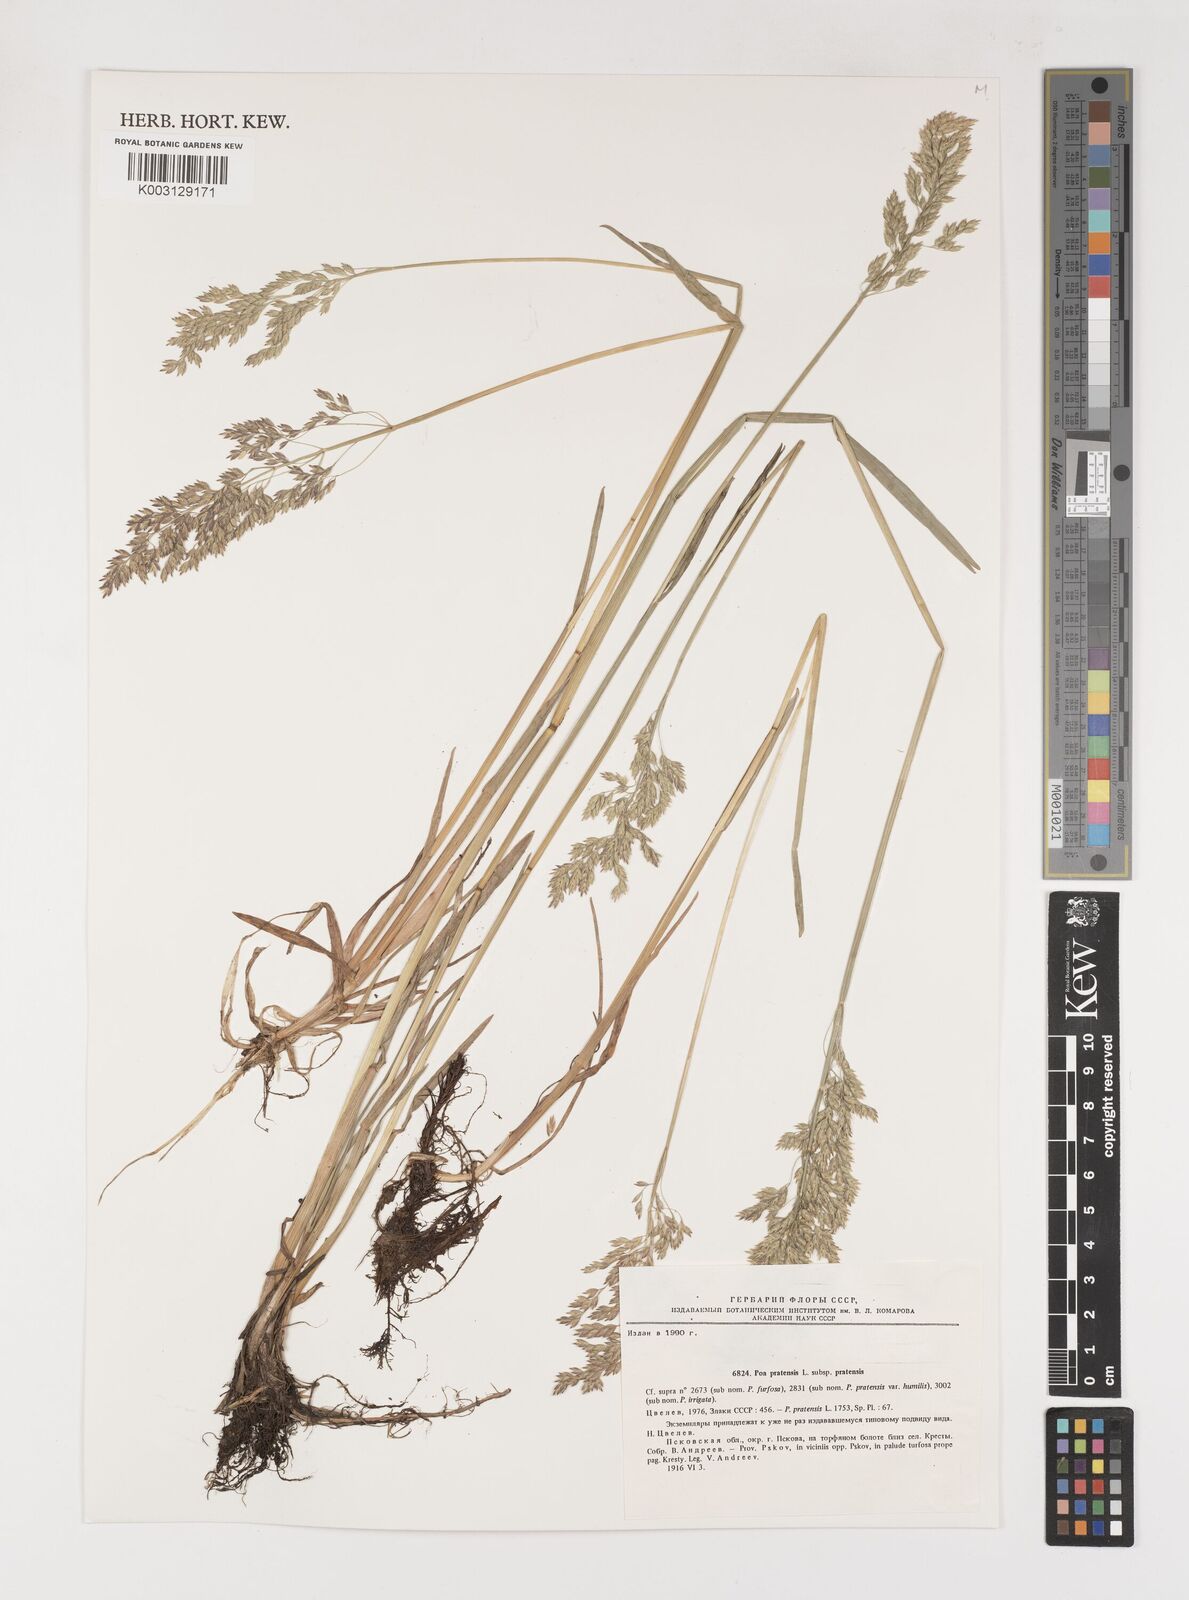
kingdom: Plantae
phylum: Tracheophyta
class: Liliopsida
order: Poales
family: Poaceae
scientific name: Poaceae
